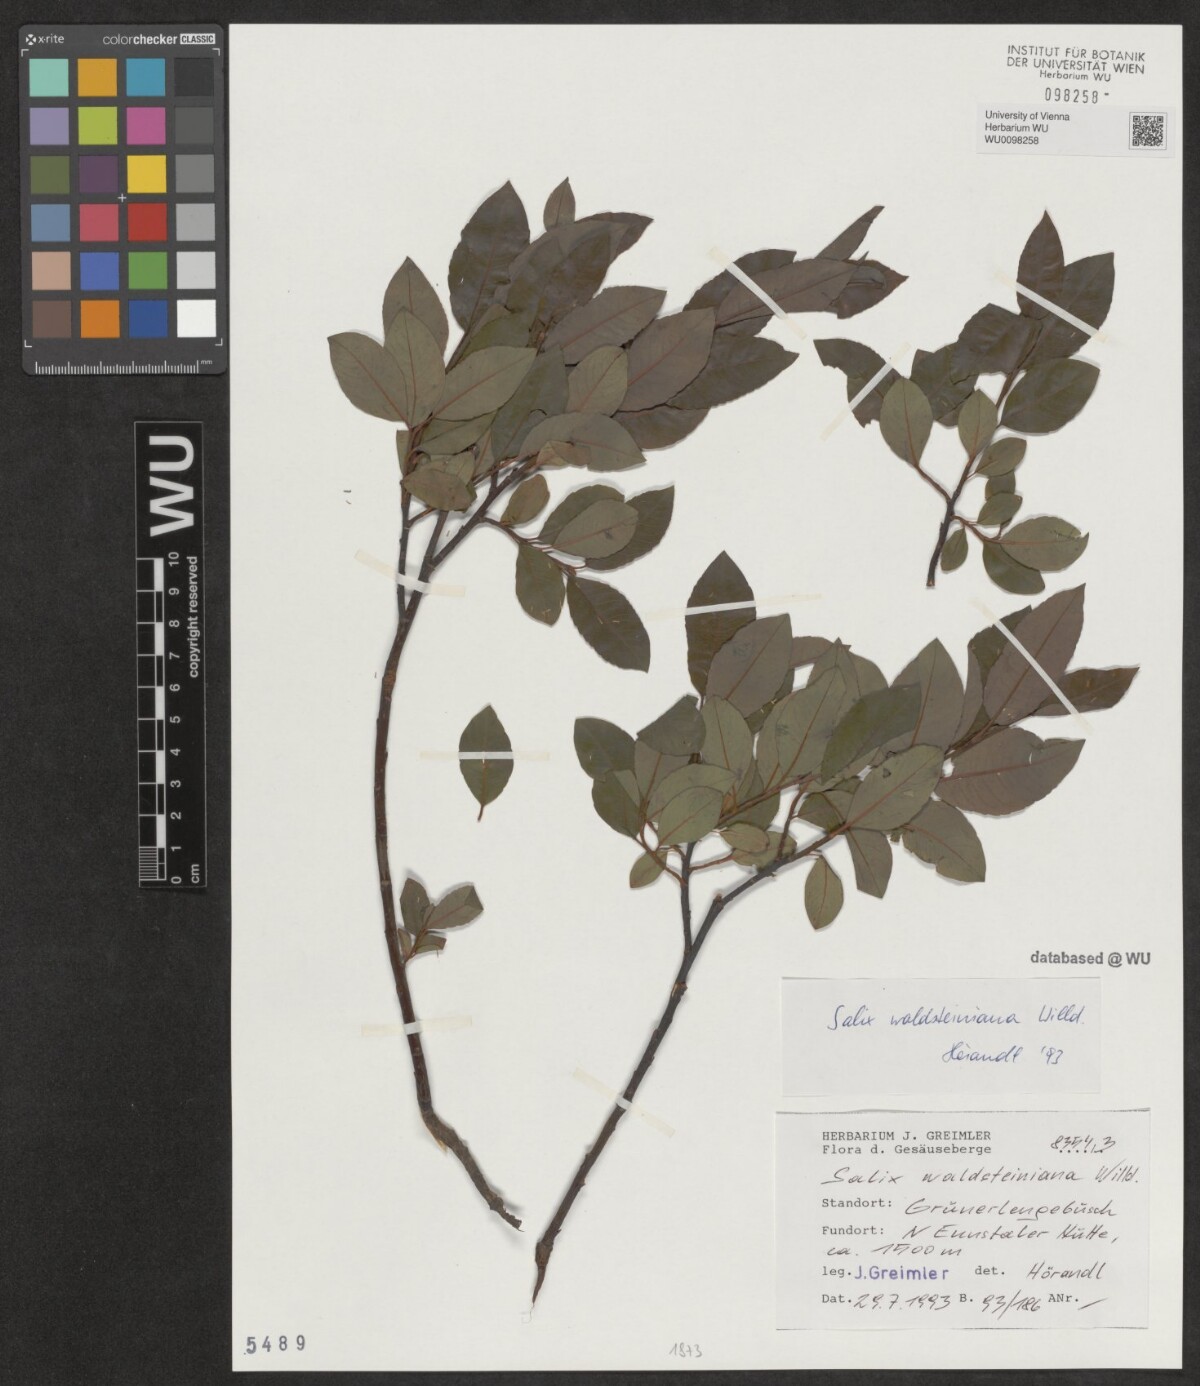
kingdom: Plantae
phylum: Tracheophyta
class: Magnoliopsida
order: Malpighiales
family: Salicaceae
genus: Salix
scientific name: Salix waldsteiniana
